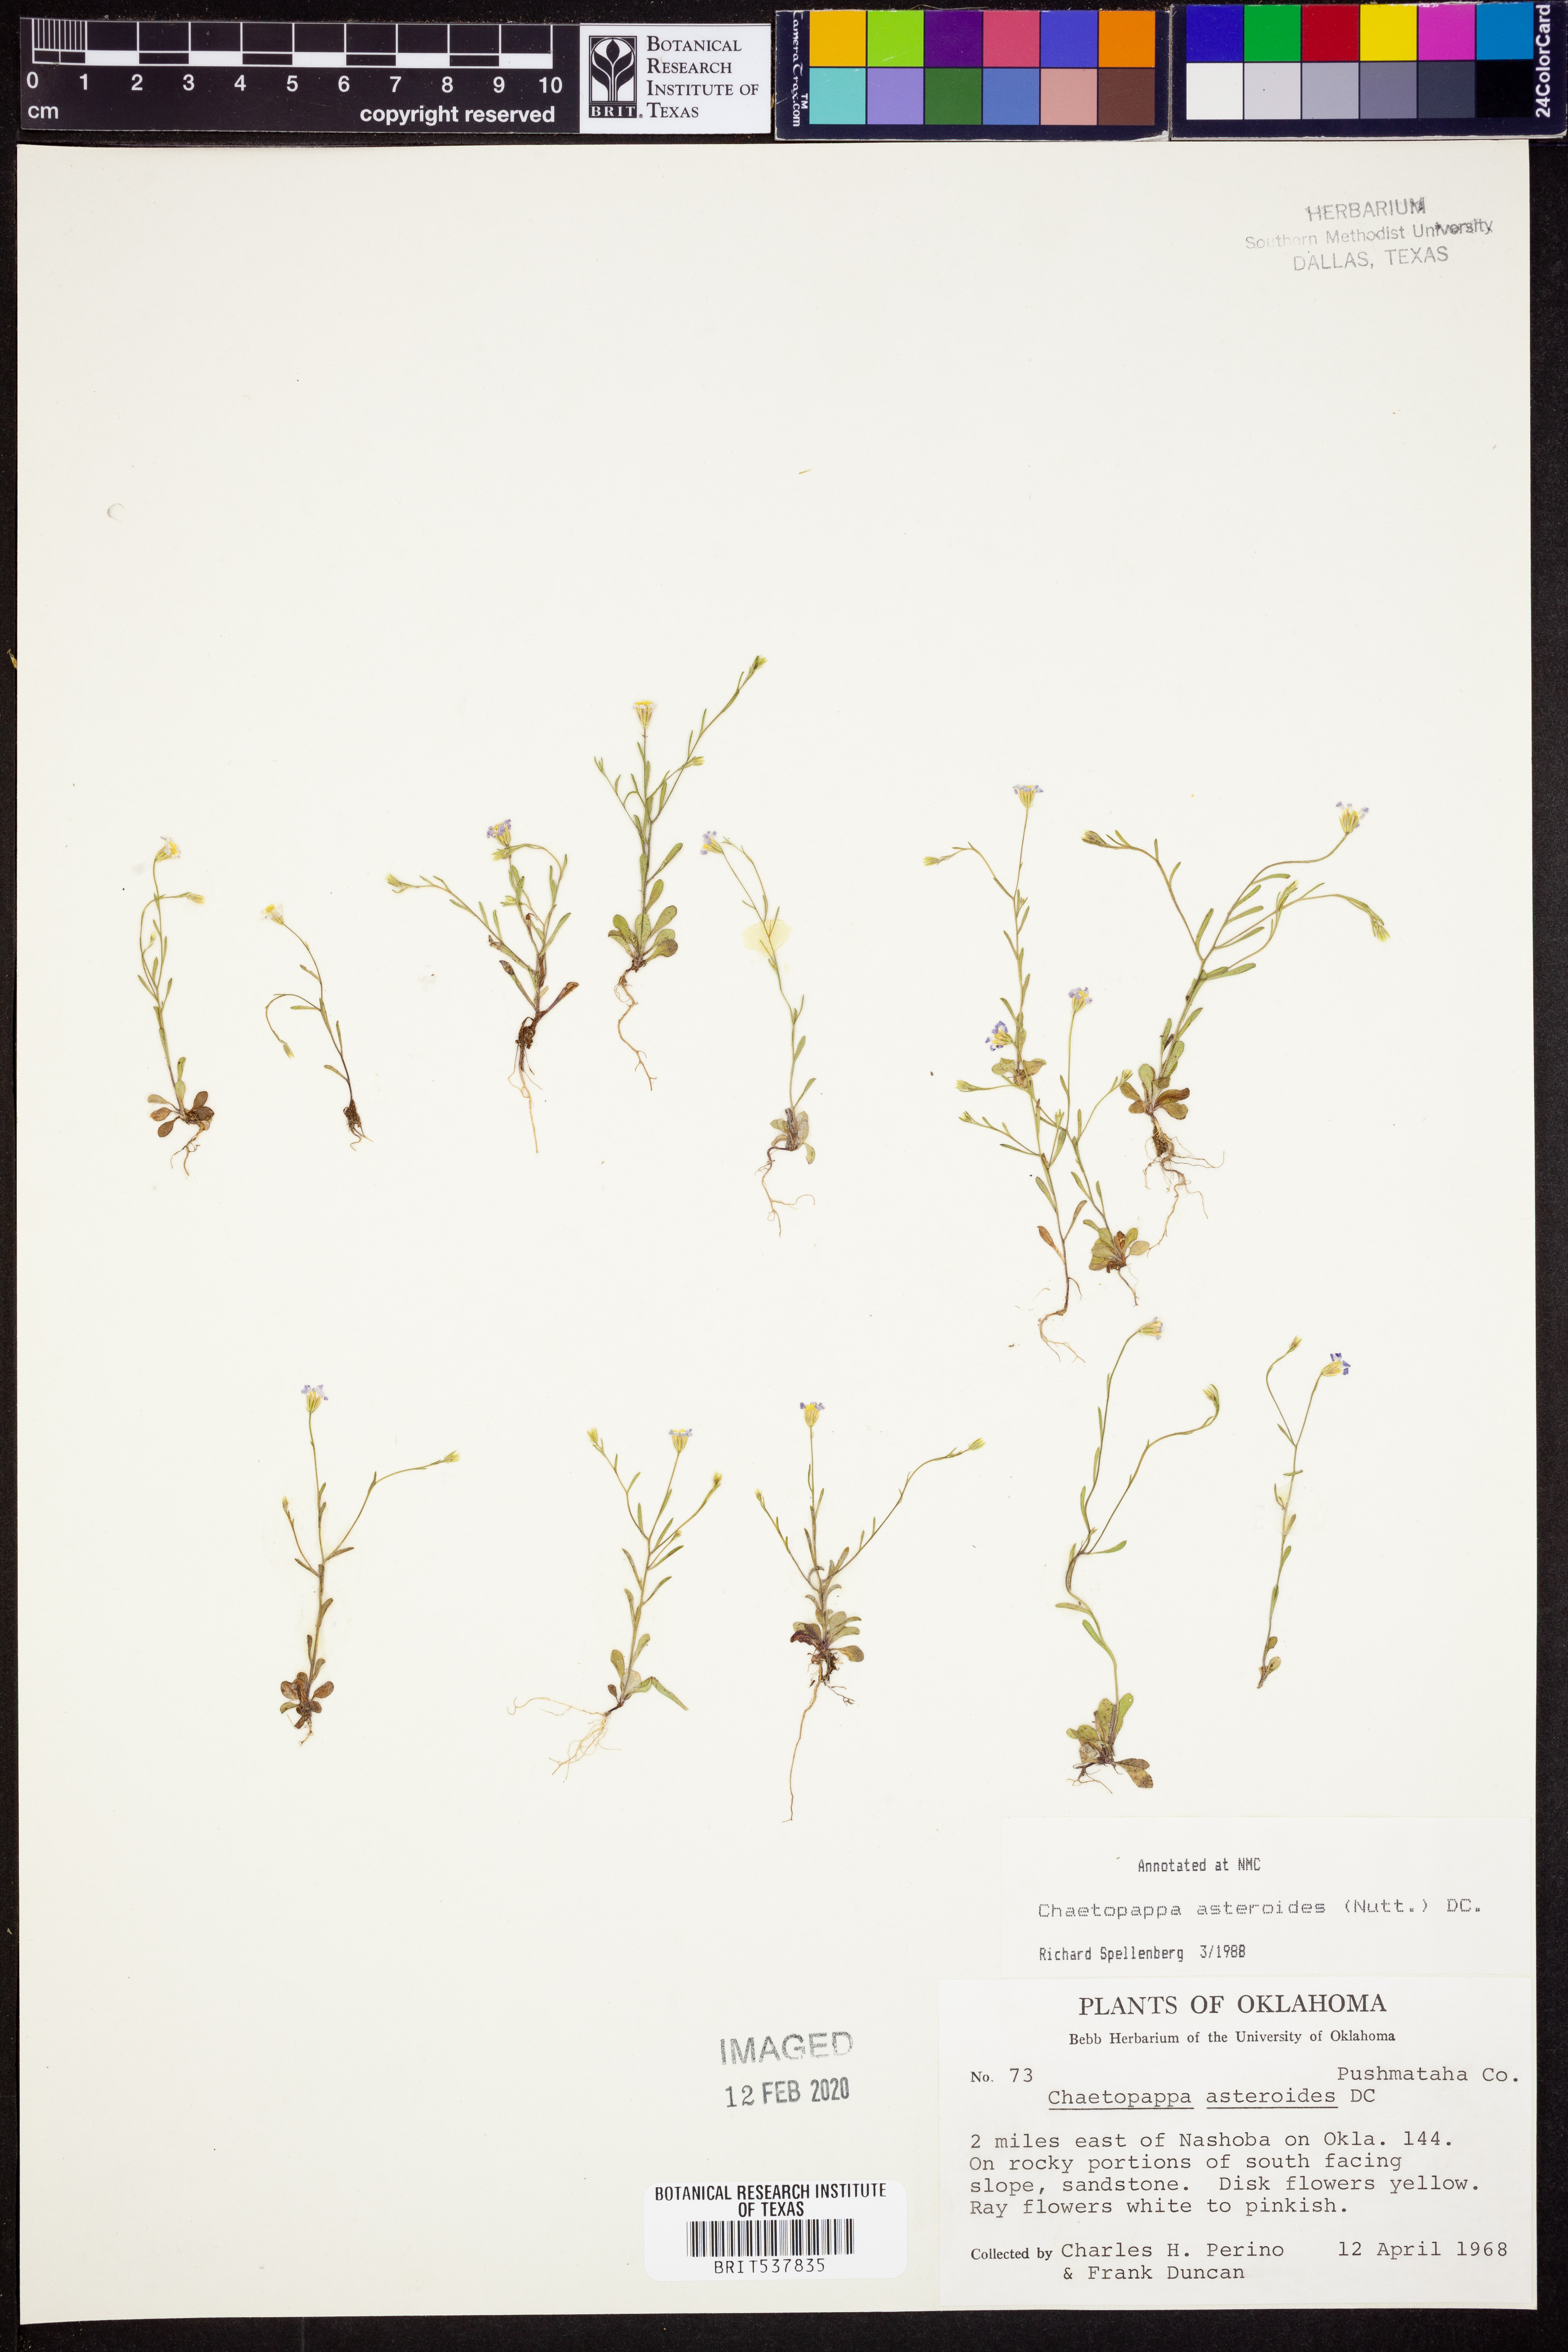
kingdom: Plantae
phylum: Tracheophyta
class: Magnoliopsida
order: Asterales
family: Asteraceae
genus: Chaetopappa
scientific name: Chaetopappa asteroides
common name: Tiny lazy daisy
